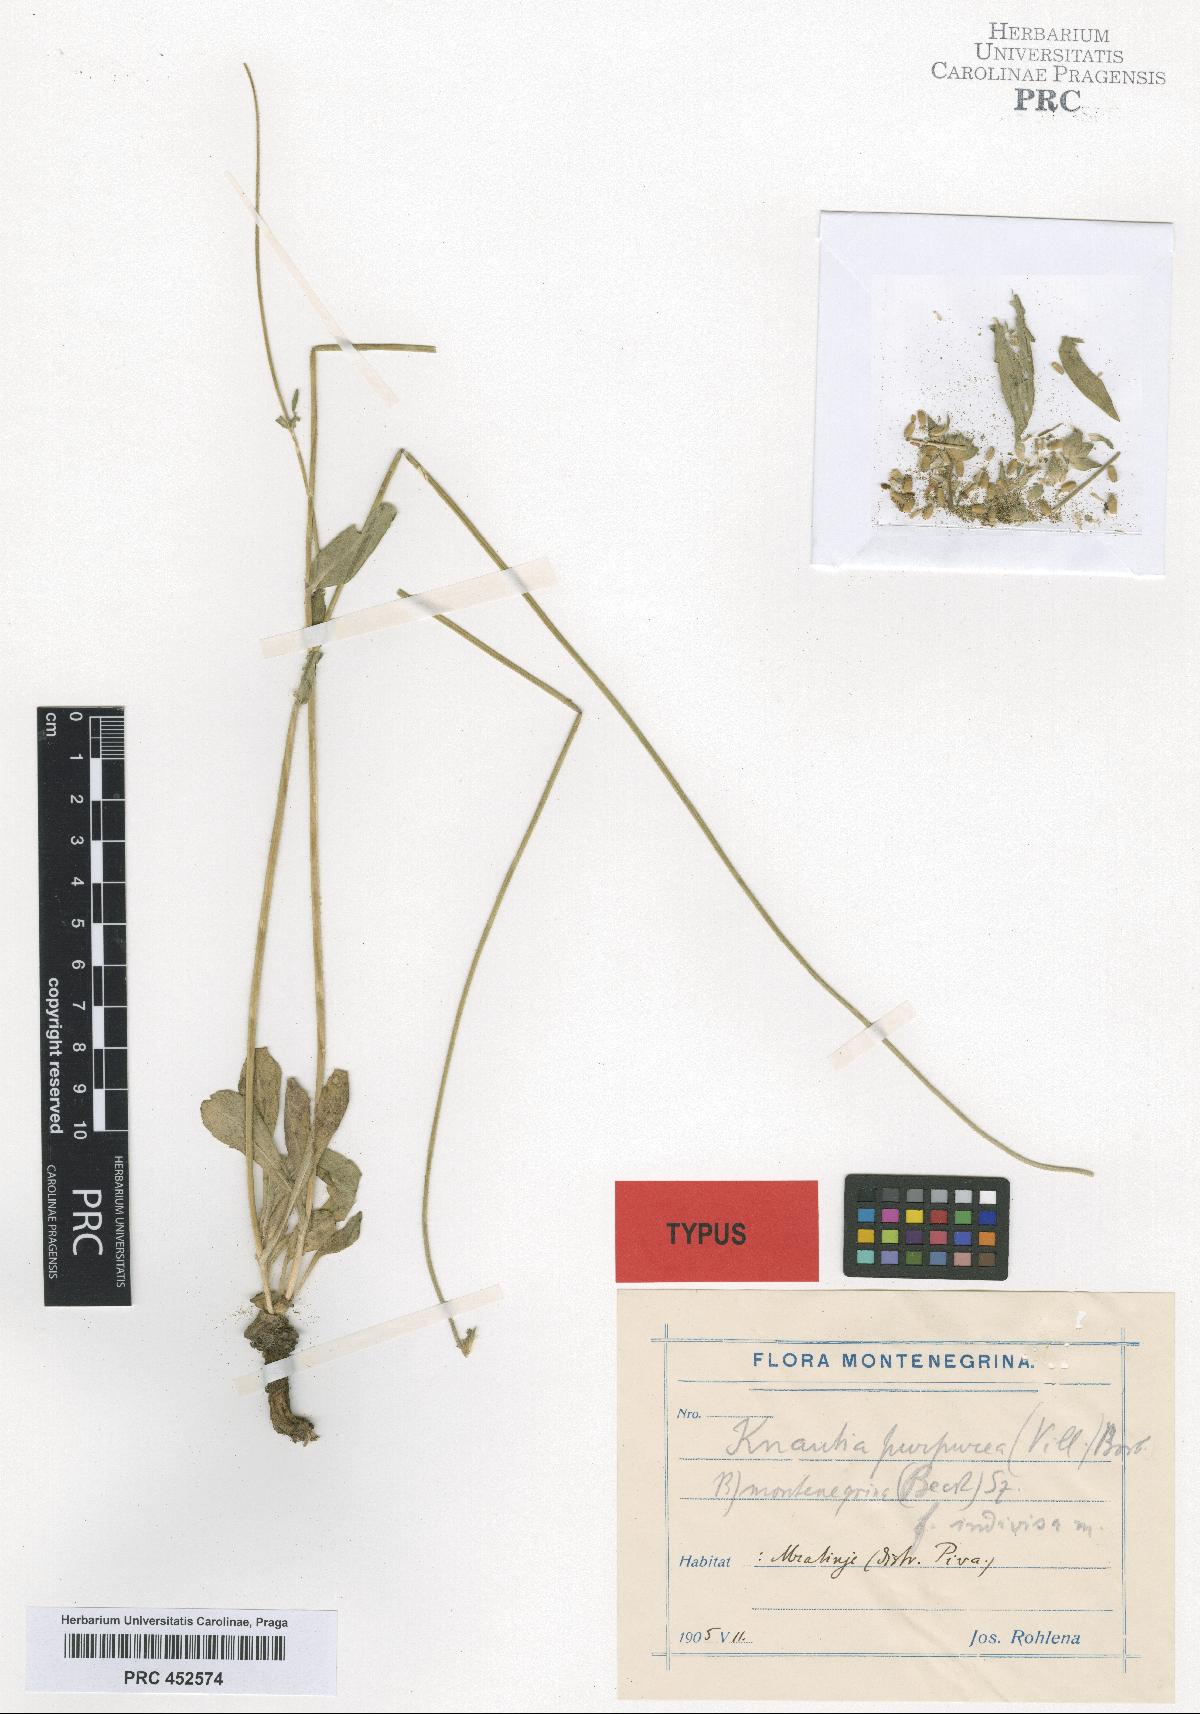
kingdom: Plantae
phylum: Tracheophyta
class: Magnoliopsida
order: Dipsacales
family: Caprifoliaceae
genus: Knautia
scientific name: Knautia visianii
